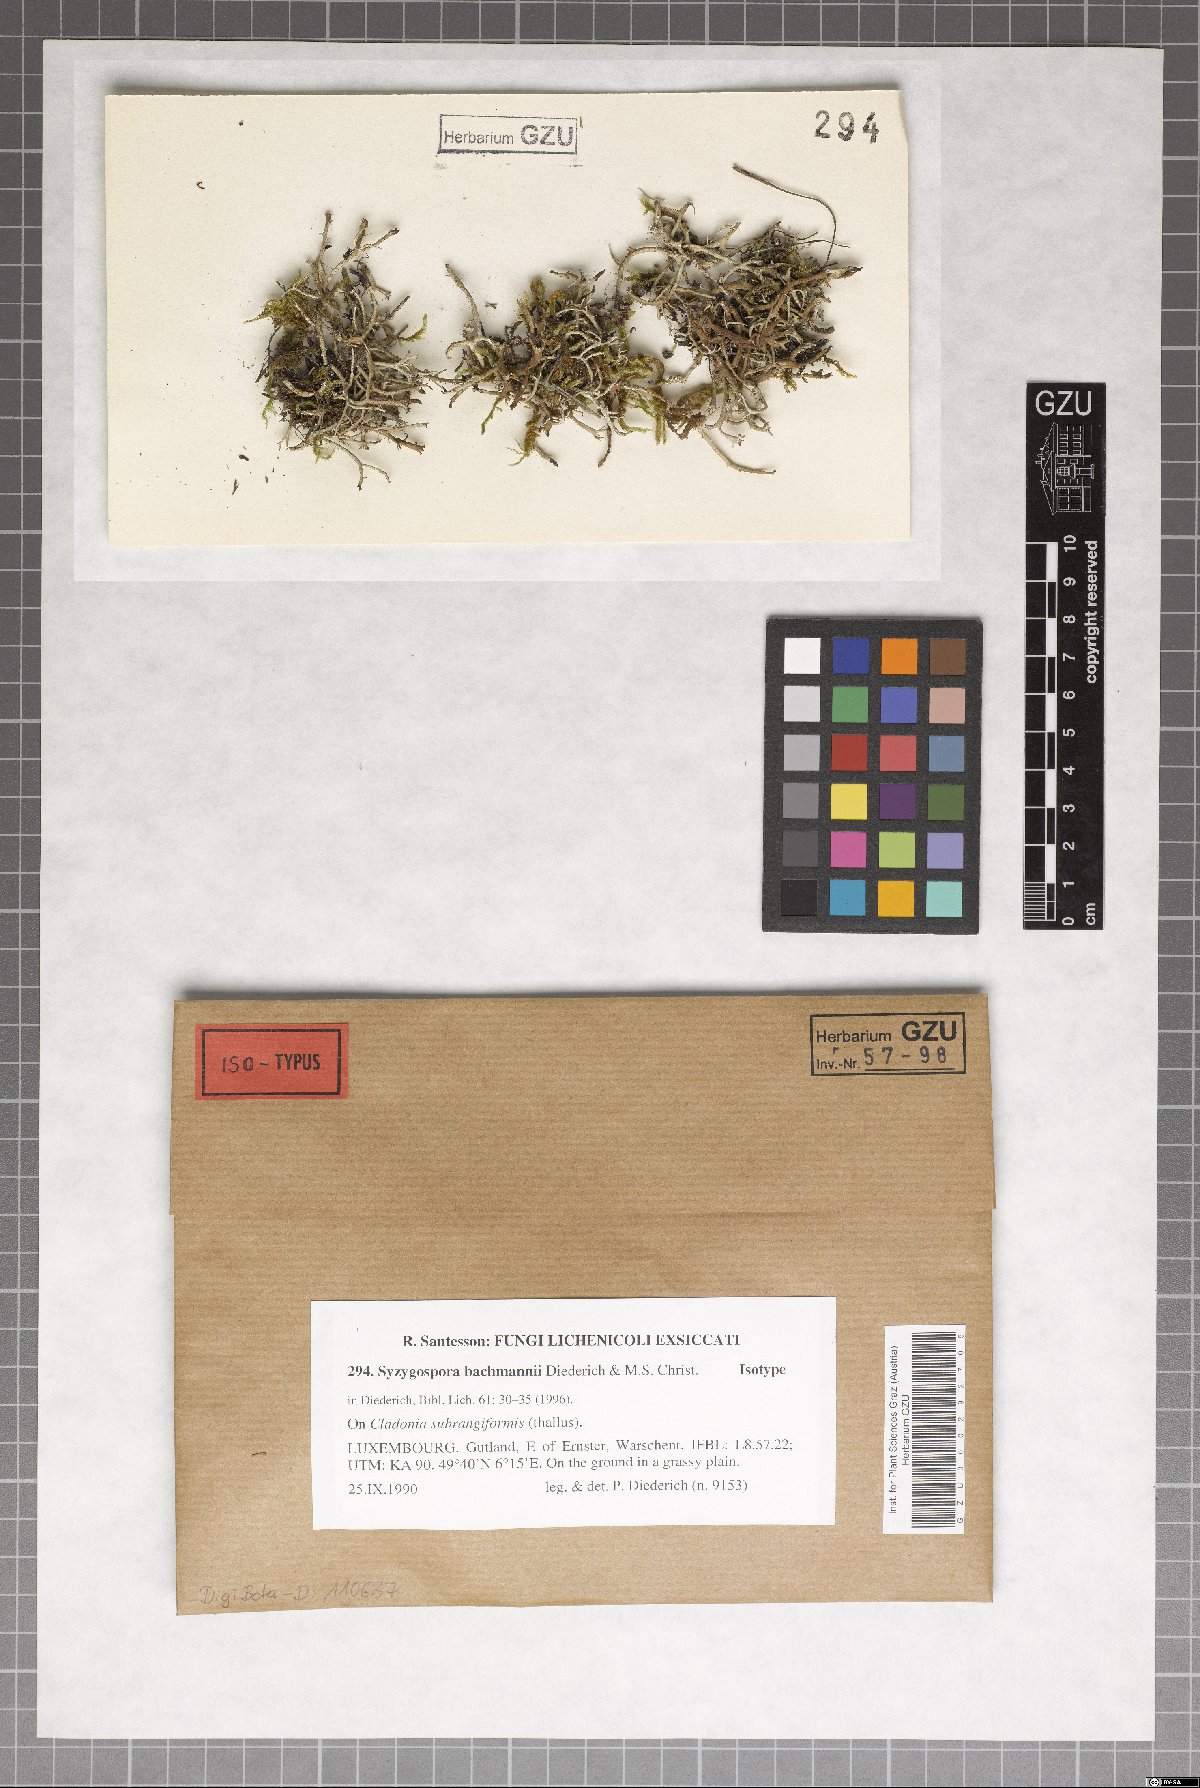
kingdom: Fungi
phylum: Basidiomycota
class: Tremellomycetes
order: Filobasidiales
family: Filobasidiaceae
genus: Zyzygomyces
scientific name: Zyzygomyces bachmannii
